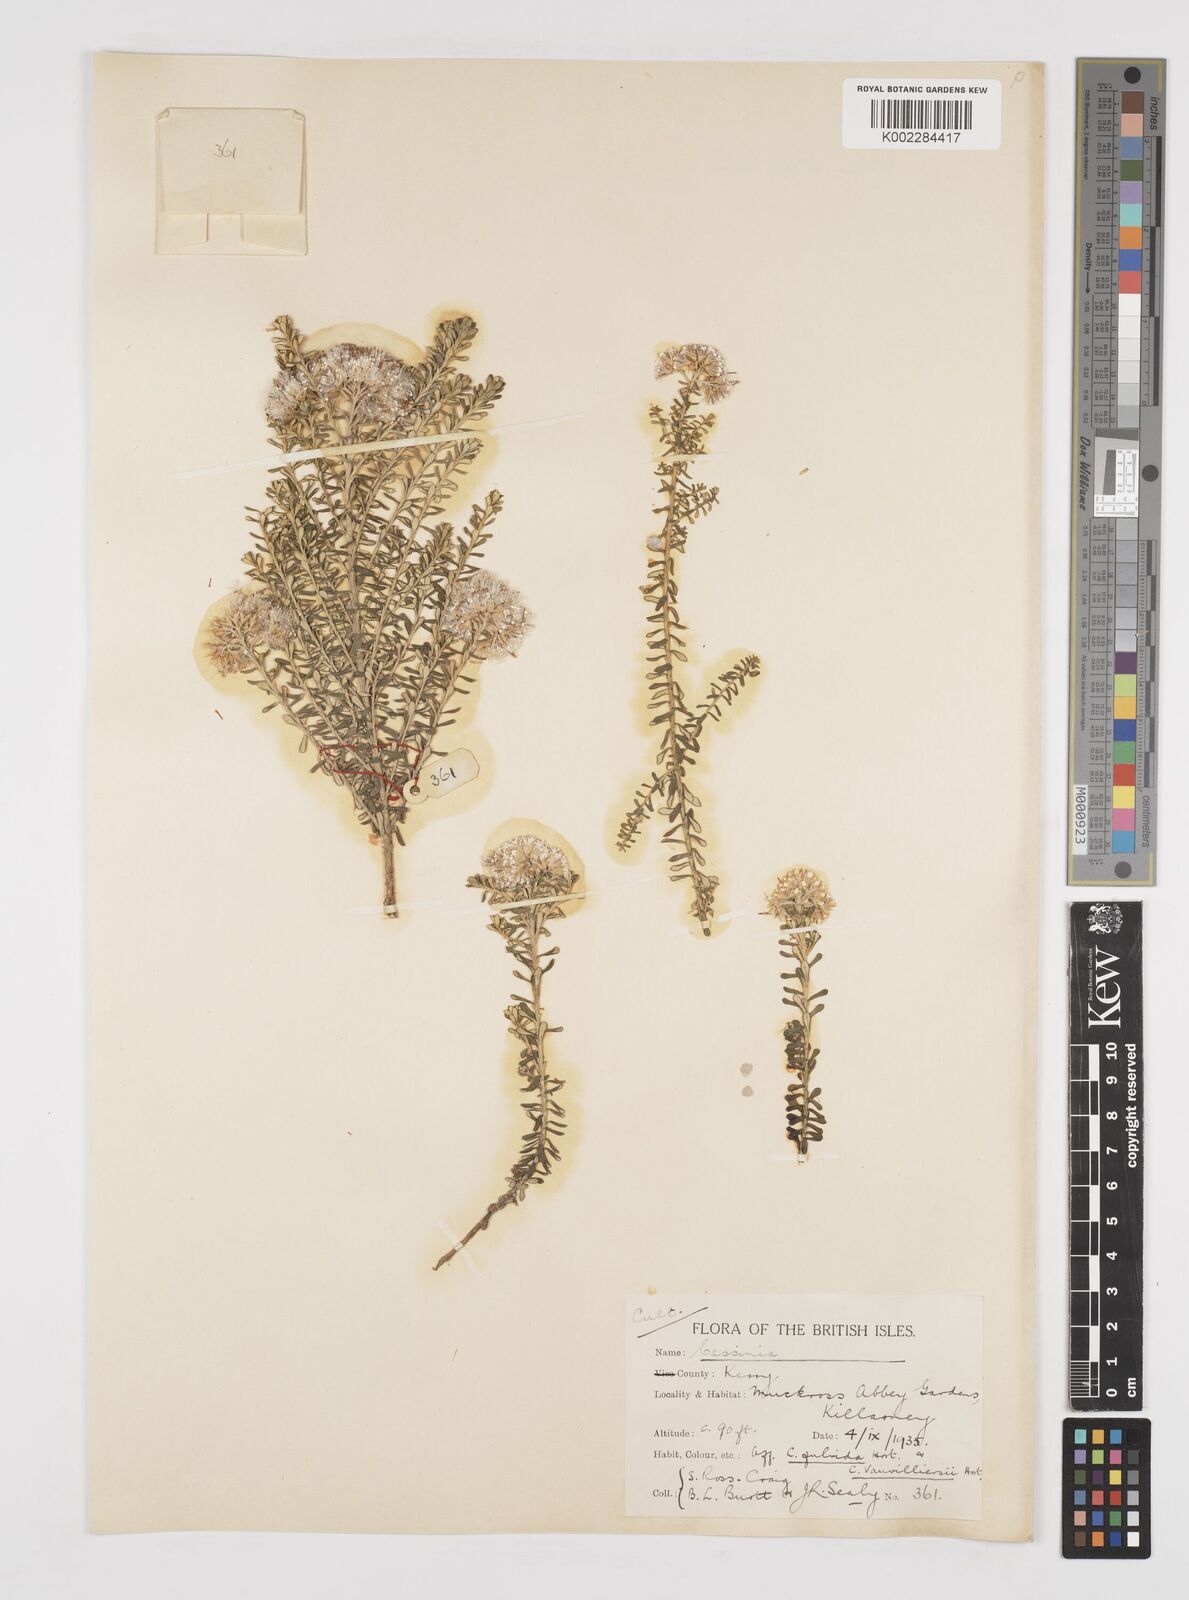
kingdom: Plantae
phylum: Tracheophyta
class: Magnoliopsida
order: Asterales
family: Asteraceae
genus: Cassinia
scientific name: Cassinia
